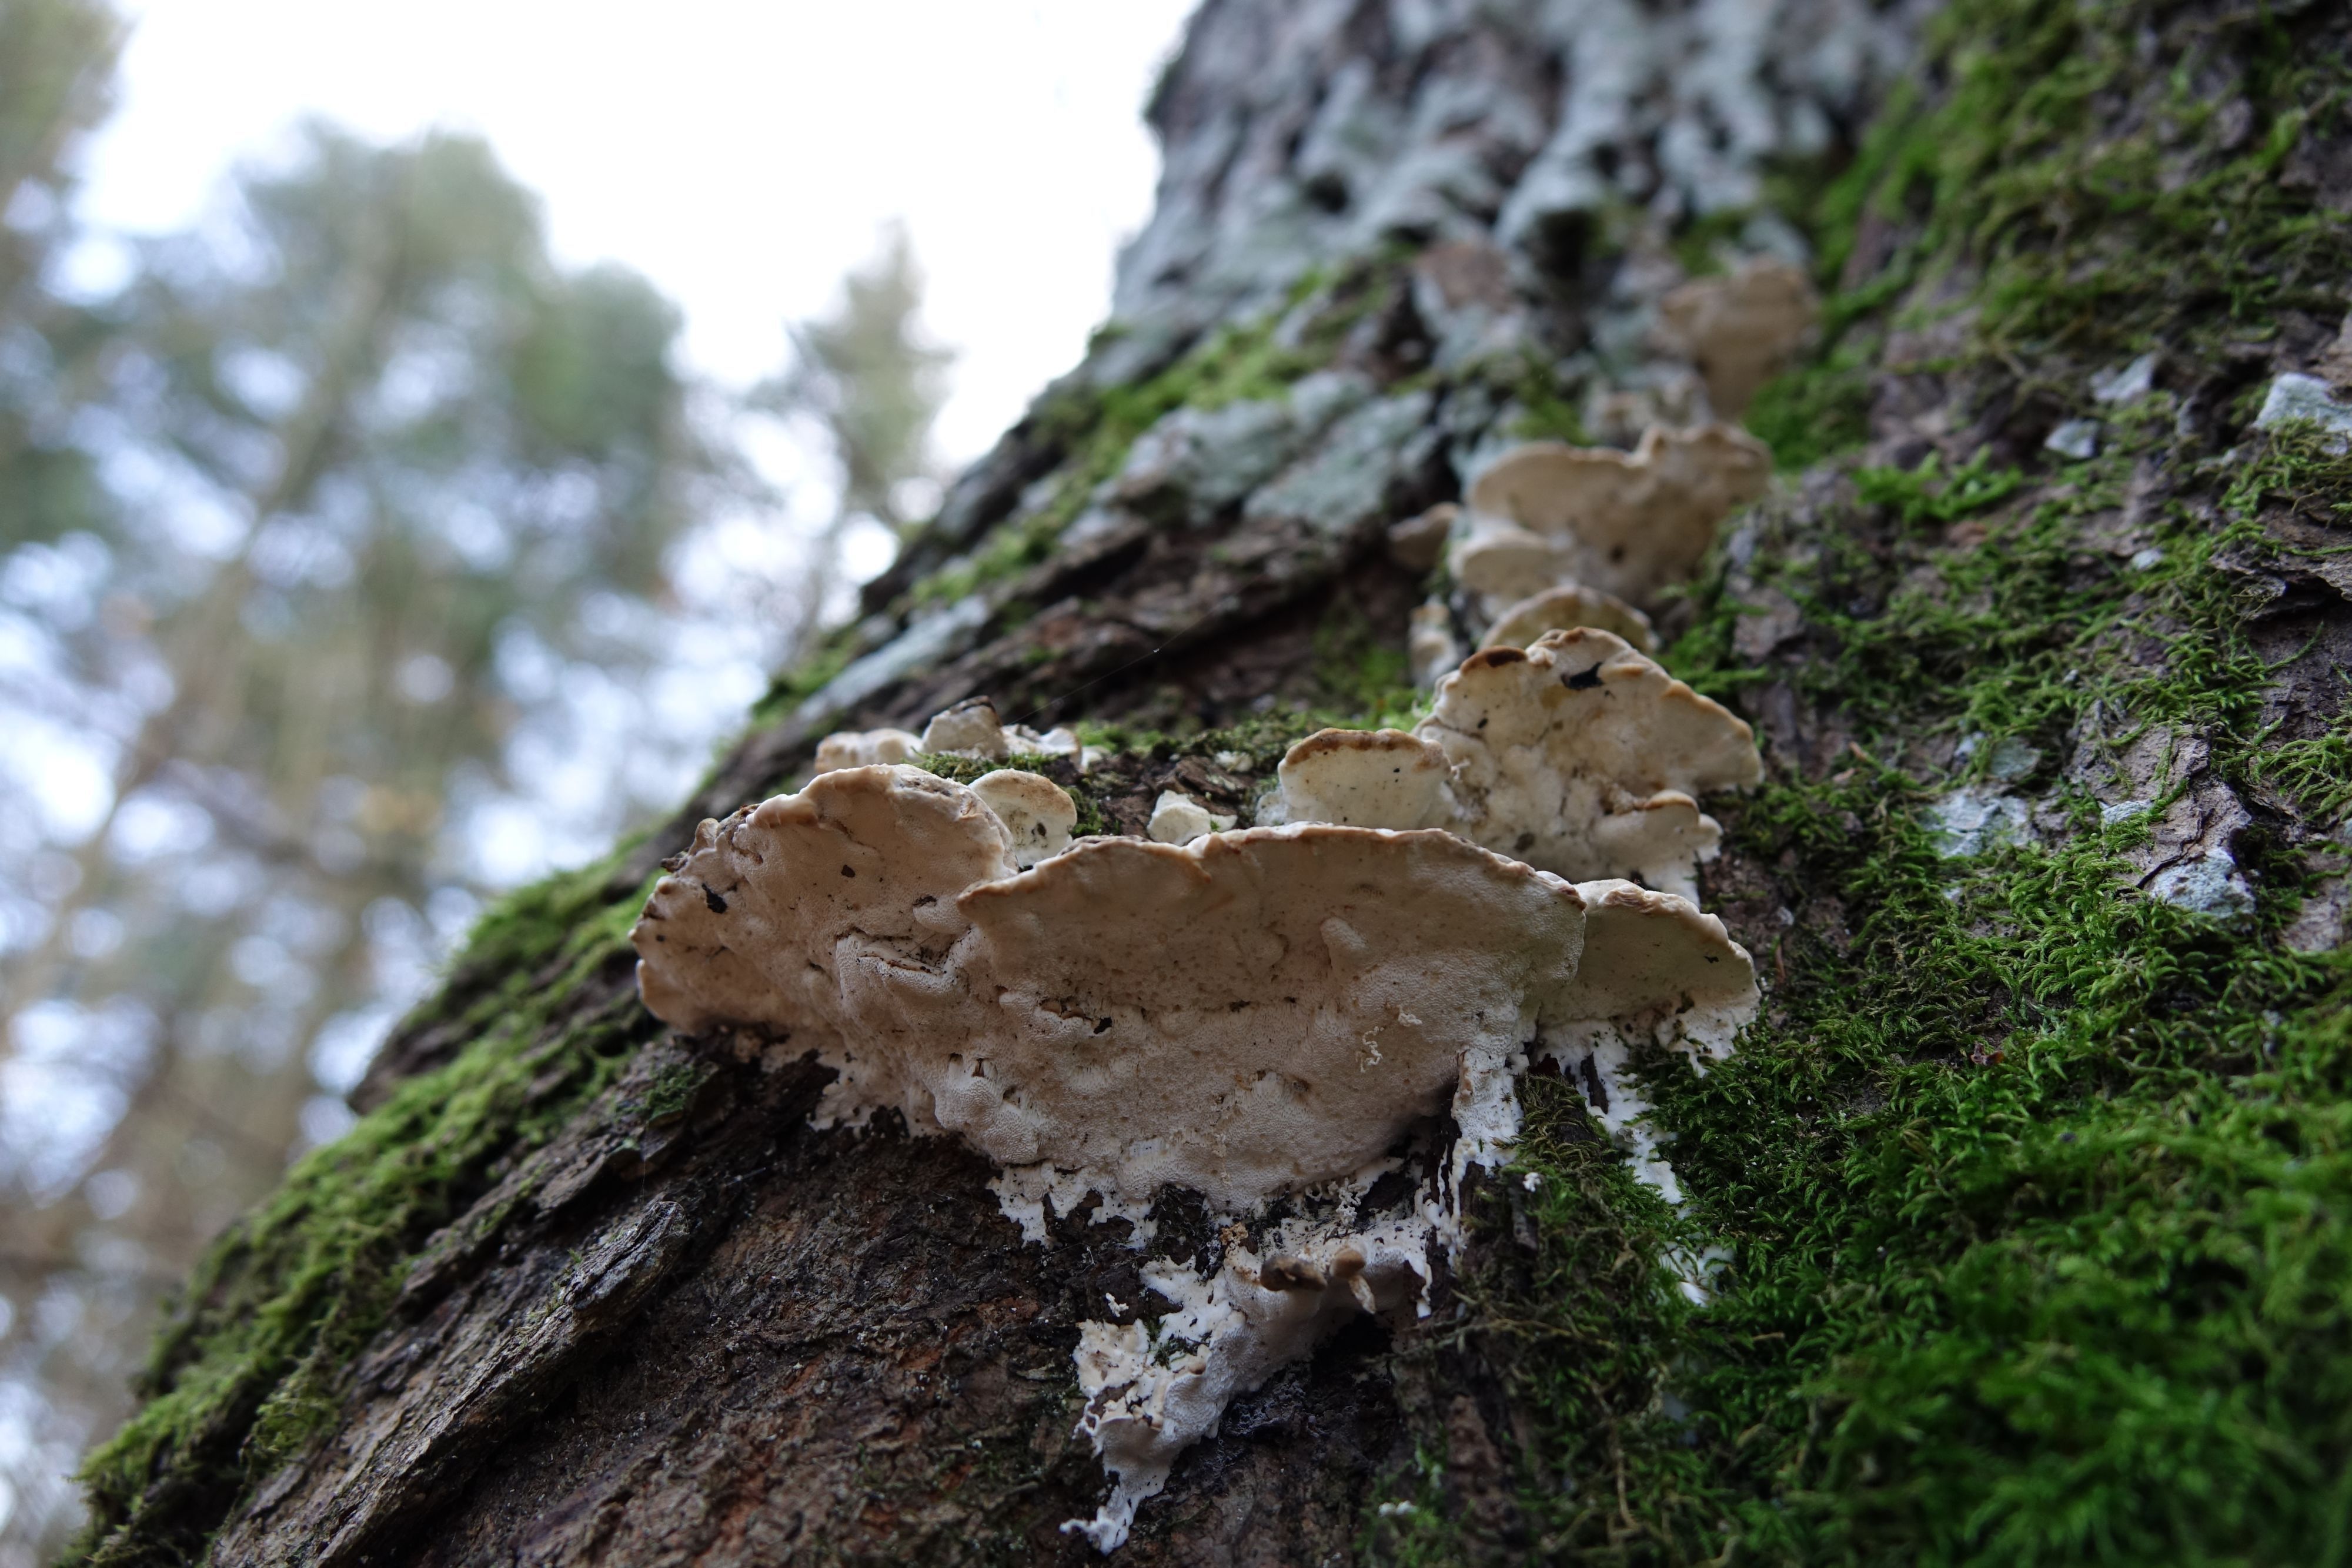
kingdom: Fungi
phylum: Basidiomycota
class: Agaricomycetes
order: Hymenochaetales
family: Oxyporaceae
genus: Oxyporus
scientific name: Oxyporus populinus
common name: Poplar bracket
